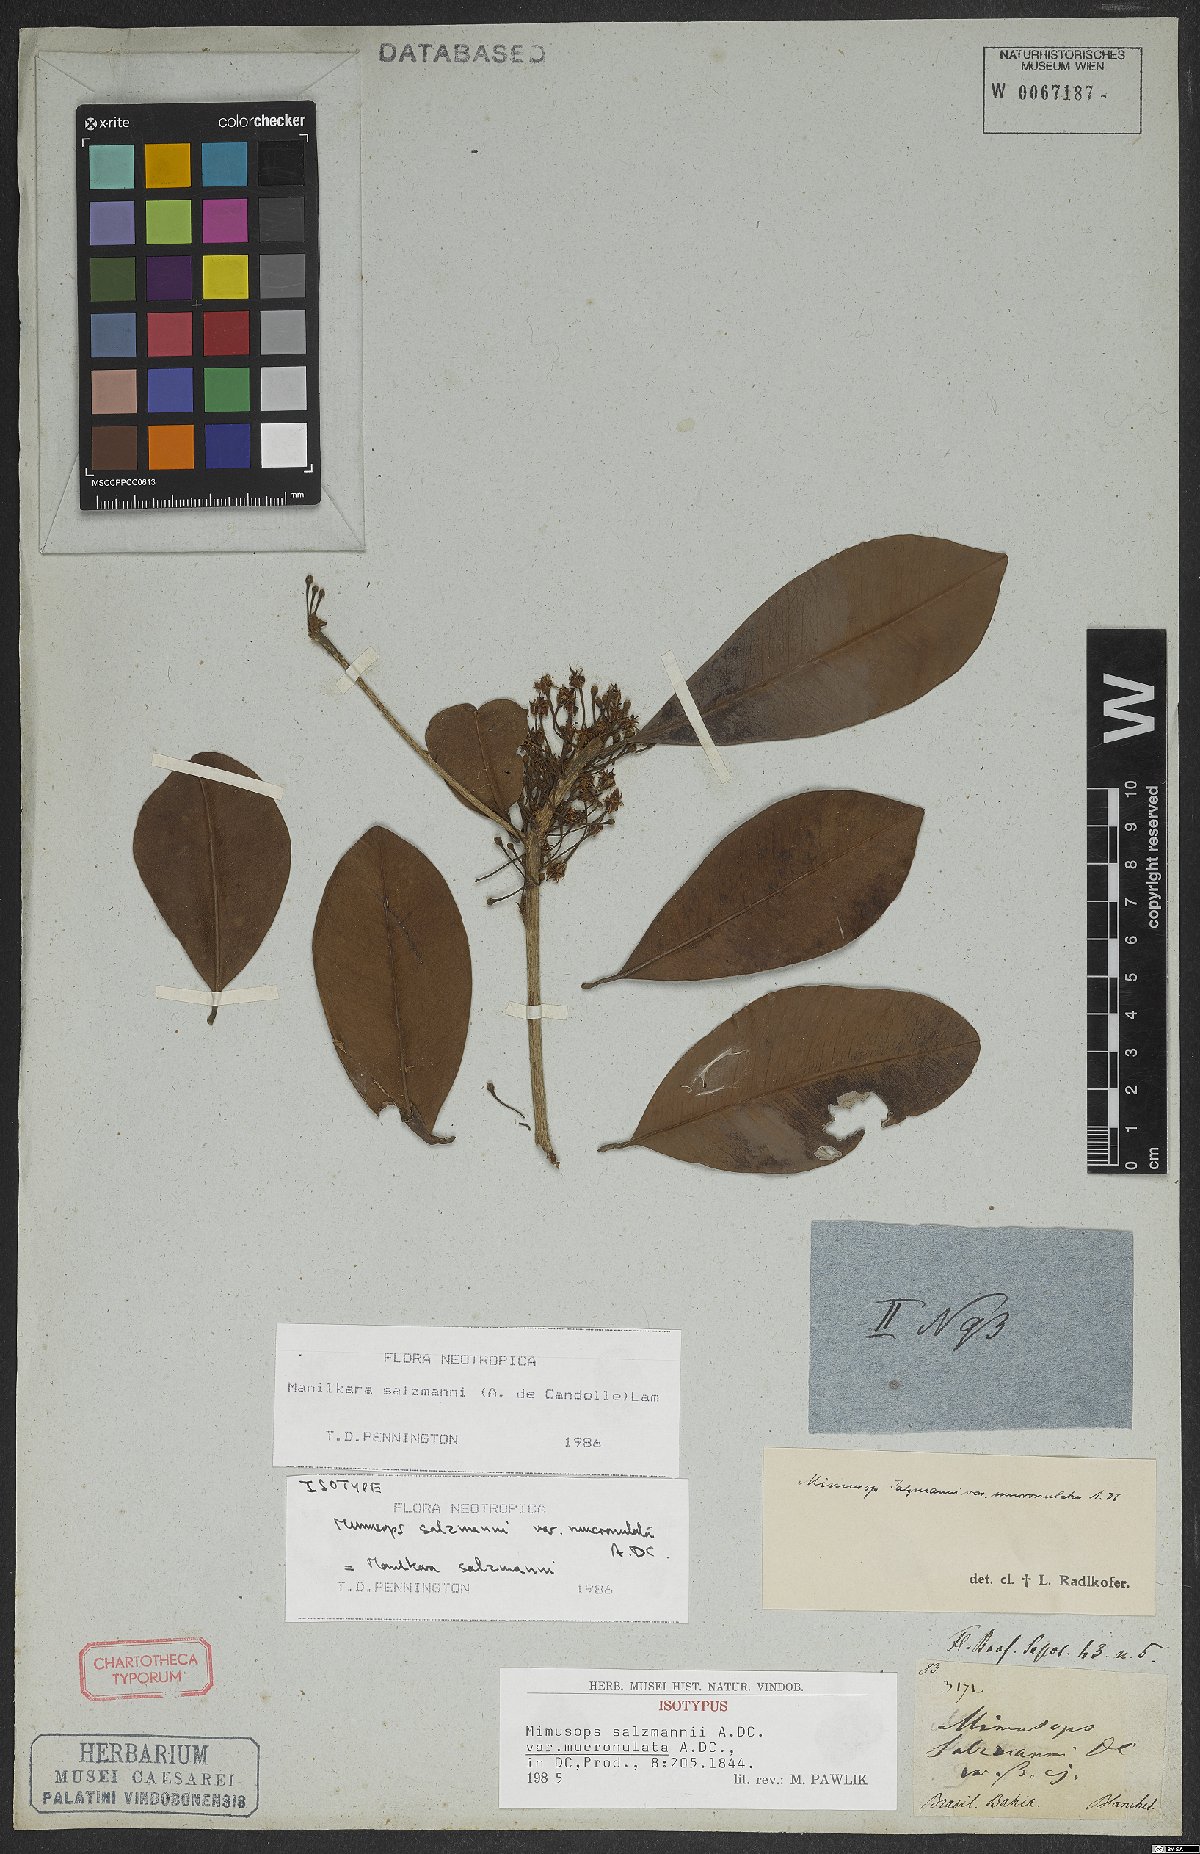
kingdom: Plantae
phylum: Tracheophyta
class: Magnoliopsida
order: Ericales
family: Sapotaceae
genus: Manilkara
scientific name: Manilkara salzmannii
